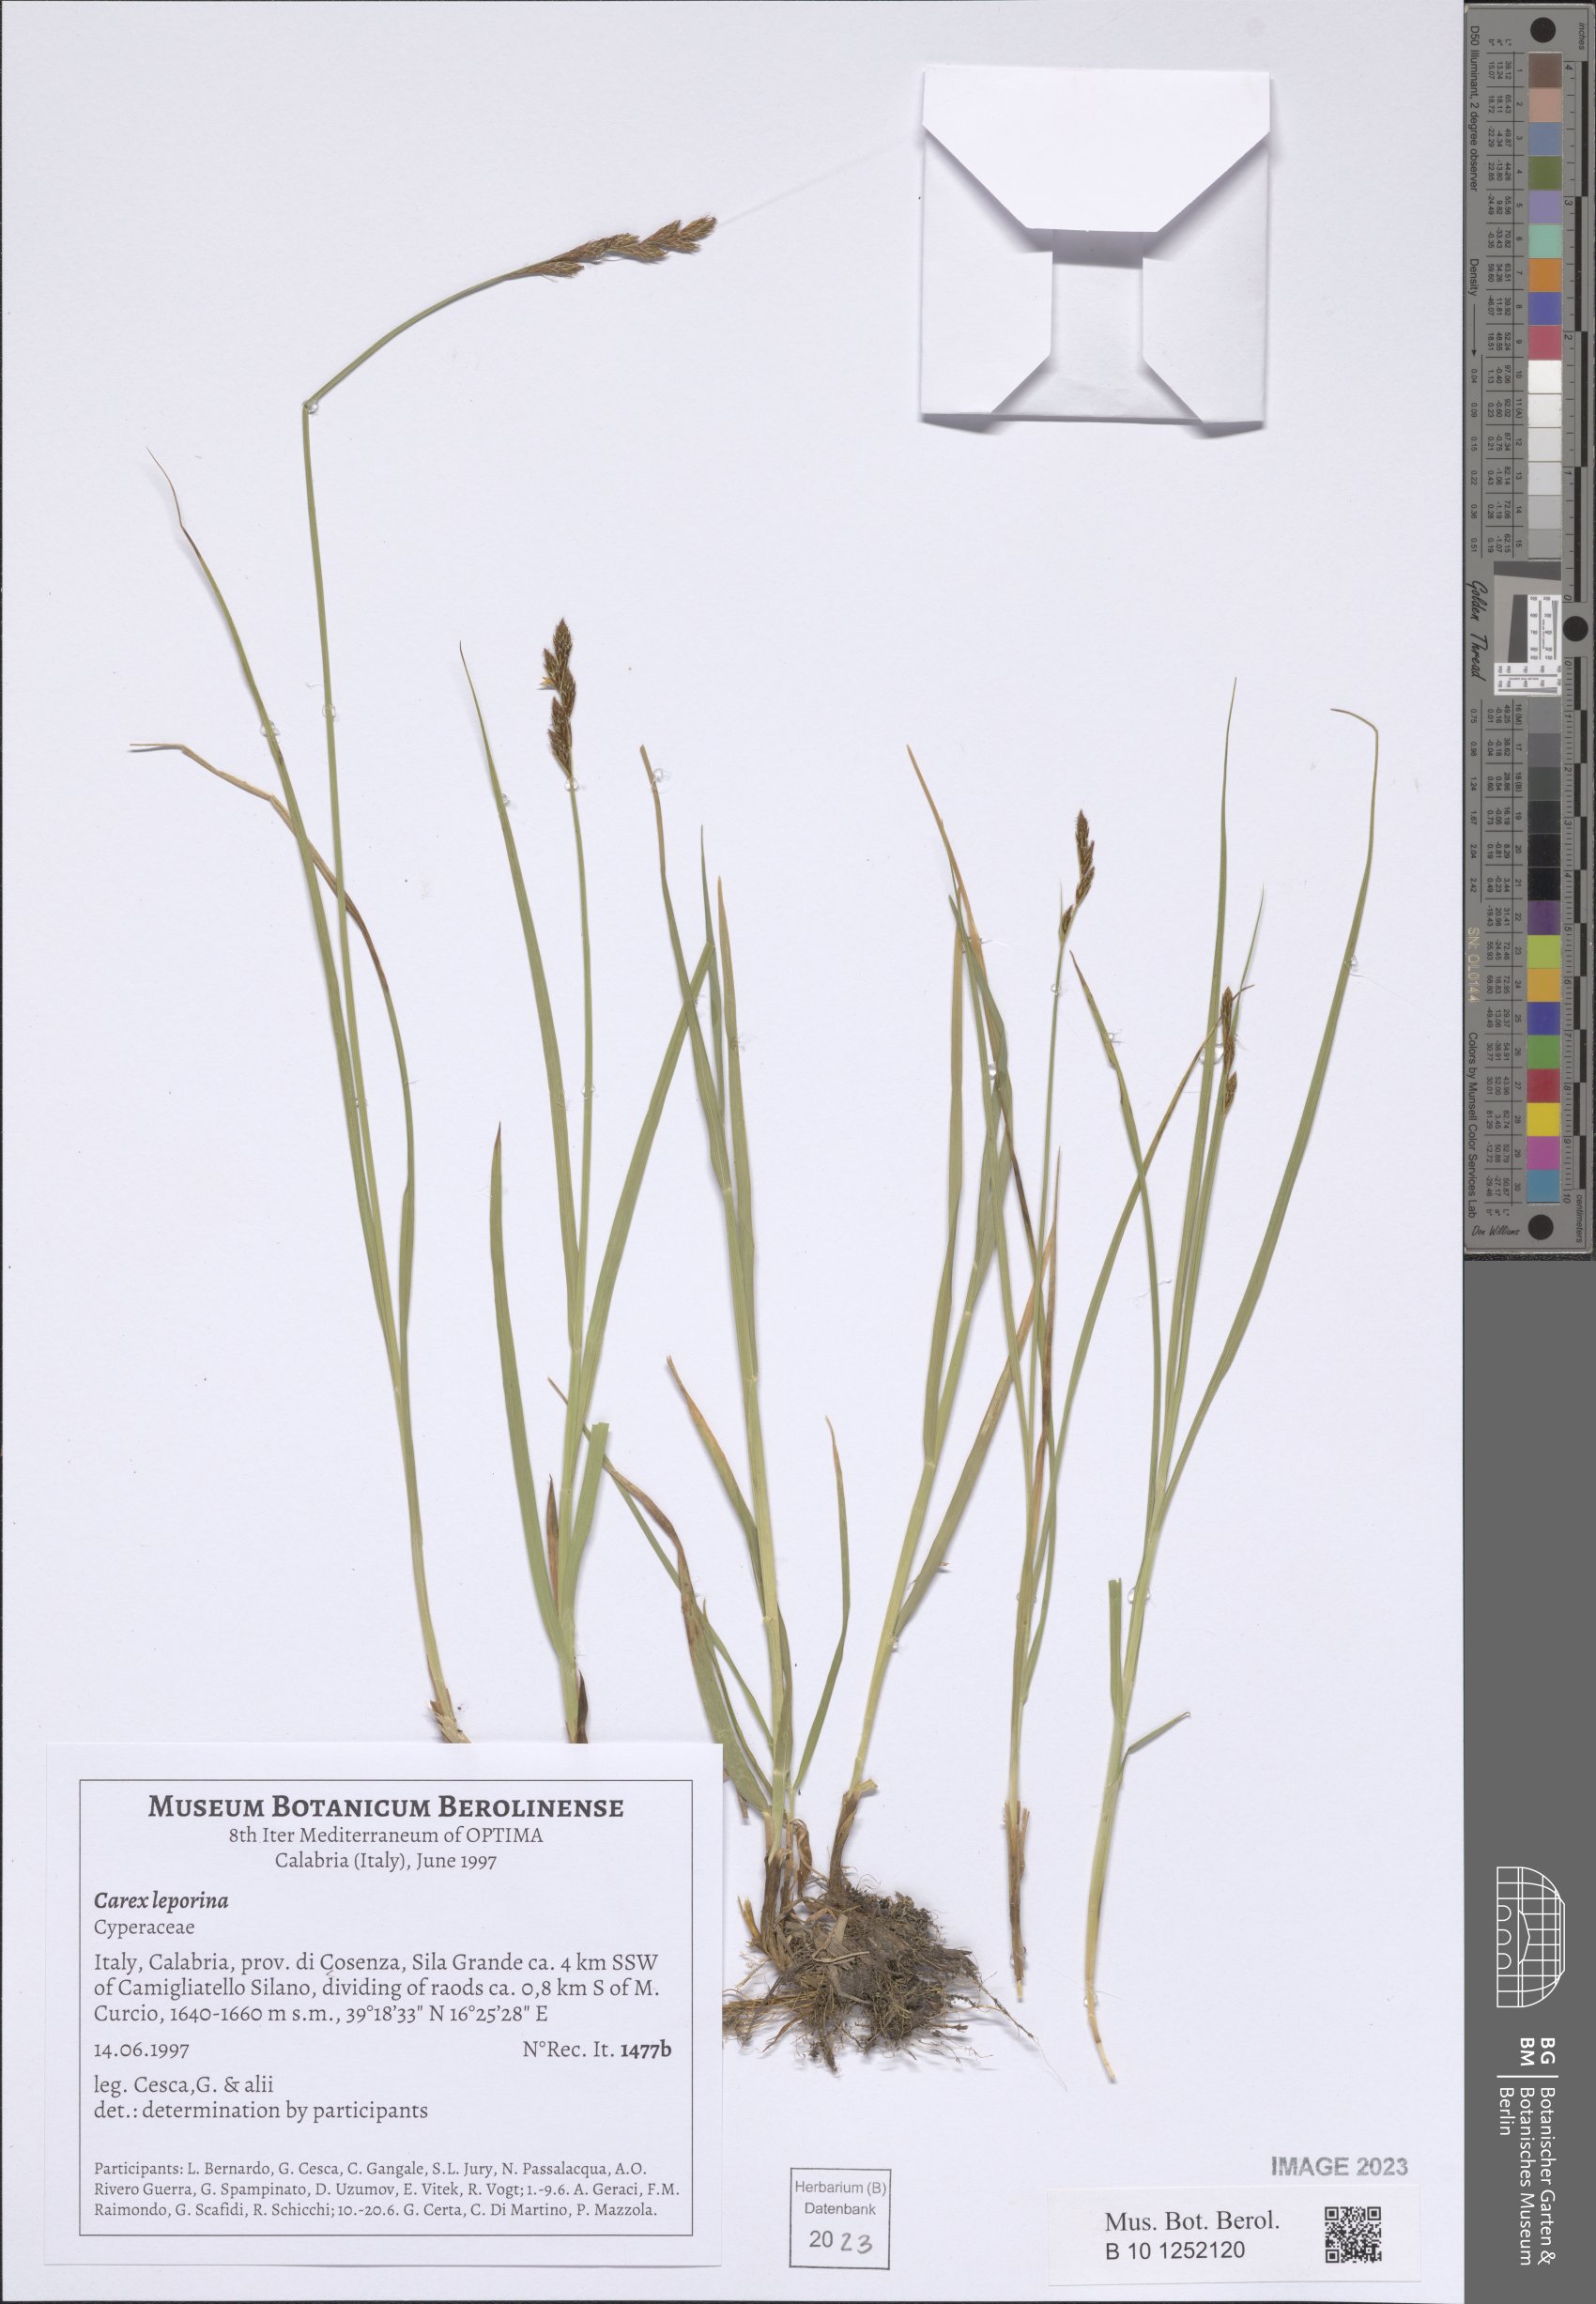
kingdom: Plantae
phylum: Tracheophyta
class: Liliopsida
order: Poales
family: Cyperaceae
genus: Carex
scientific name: Carex leporina
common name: Oval sedge
